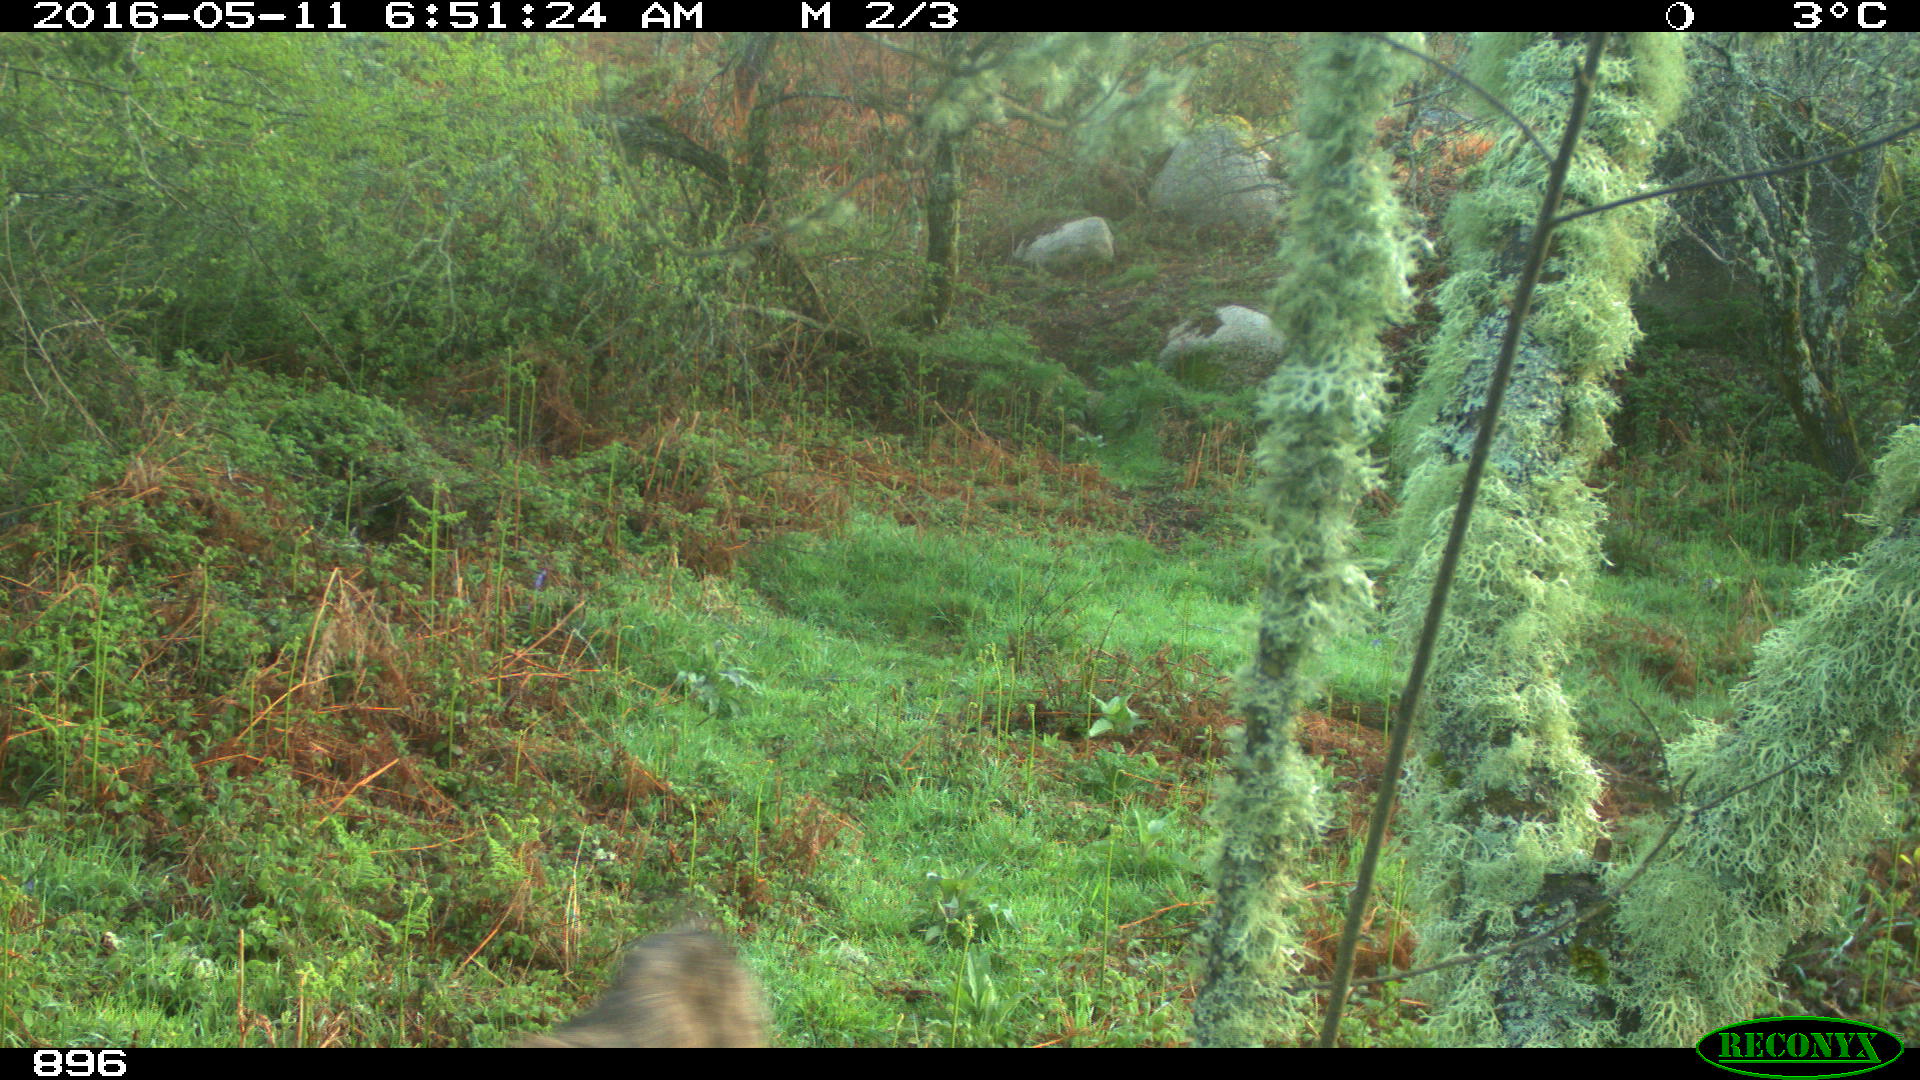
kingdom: Animalia
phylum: Chordata
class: Mammalia
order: Carnivora
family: Canidae
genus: Canis
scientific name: Canis lupus
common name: Gray wolf
